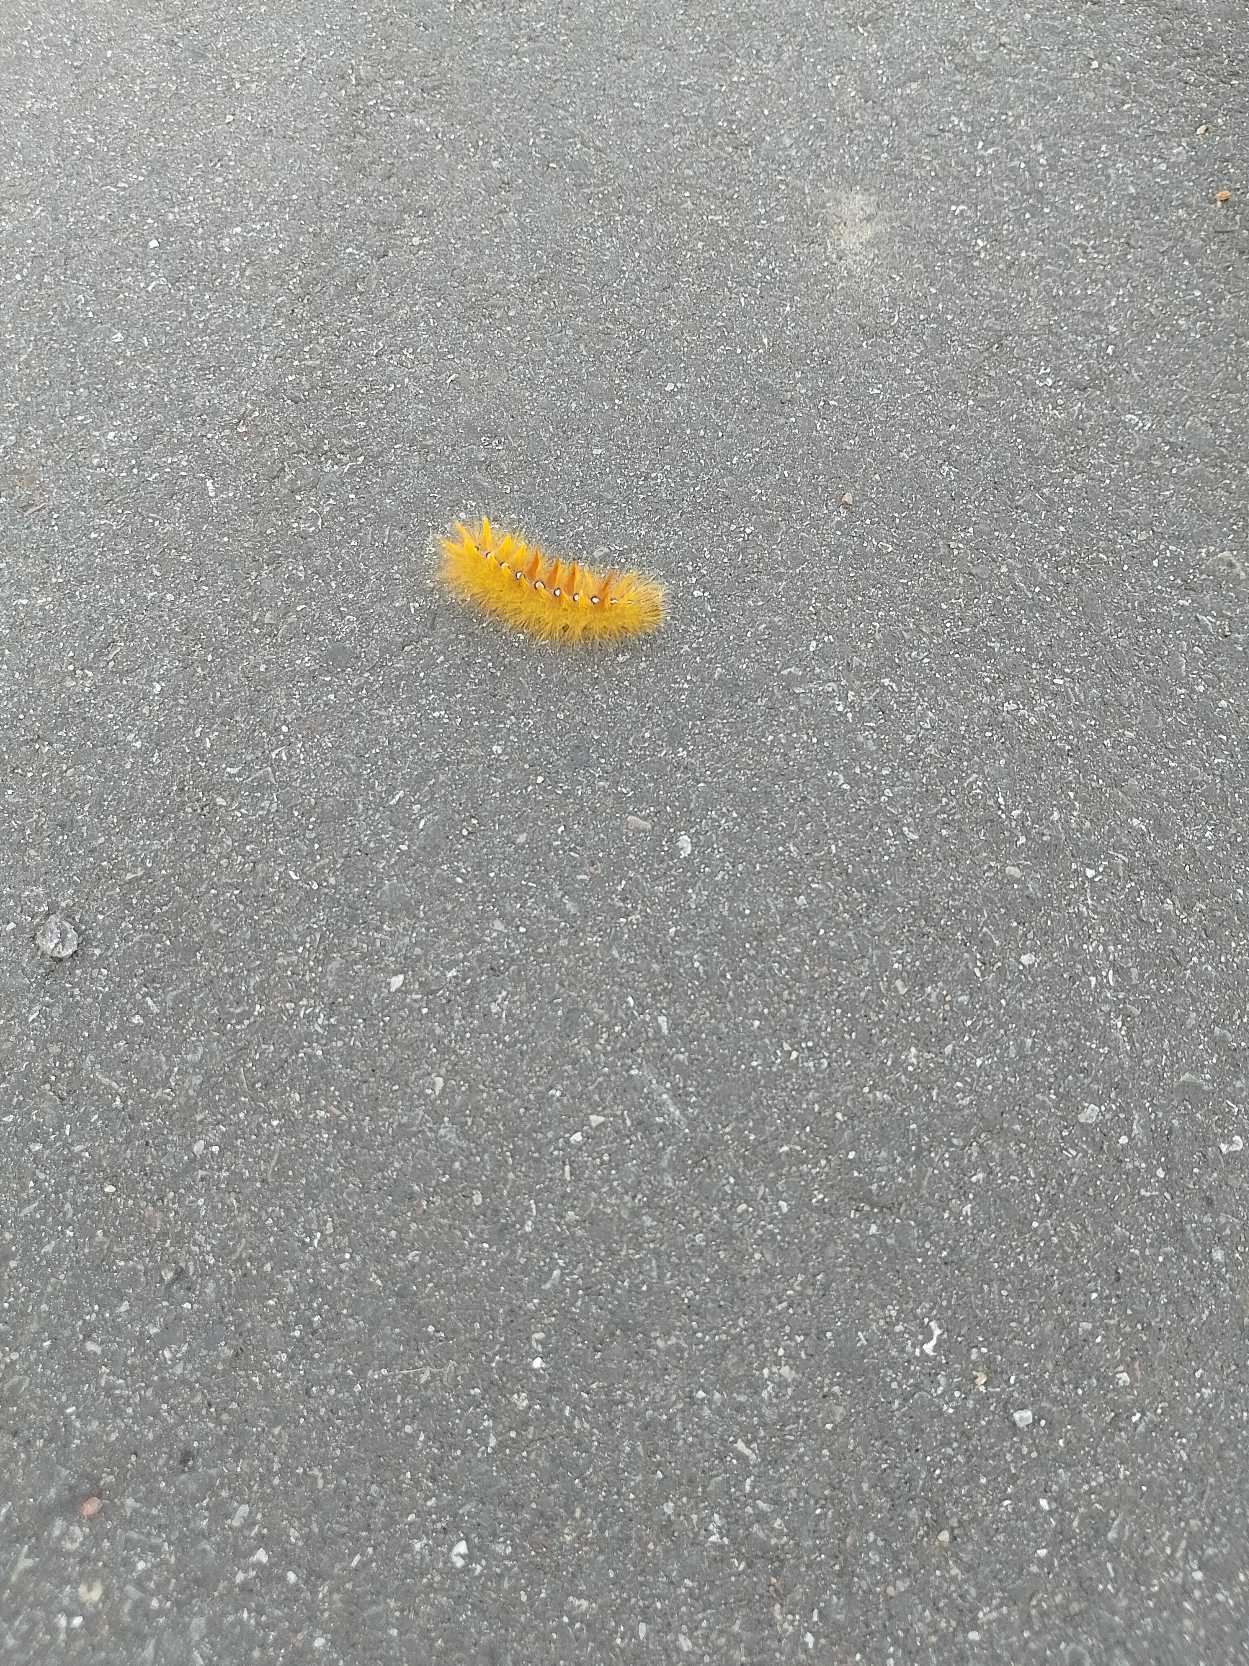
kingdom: Animalia
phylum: Arthropoda
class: Insecta
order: Lepidoptera
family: Noctuidae
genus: Acronicta
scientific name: Acronicta aceris
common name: Ahornugle
